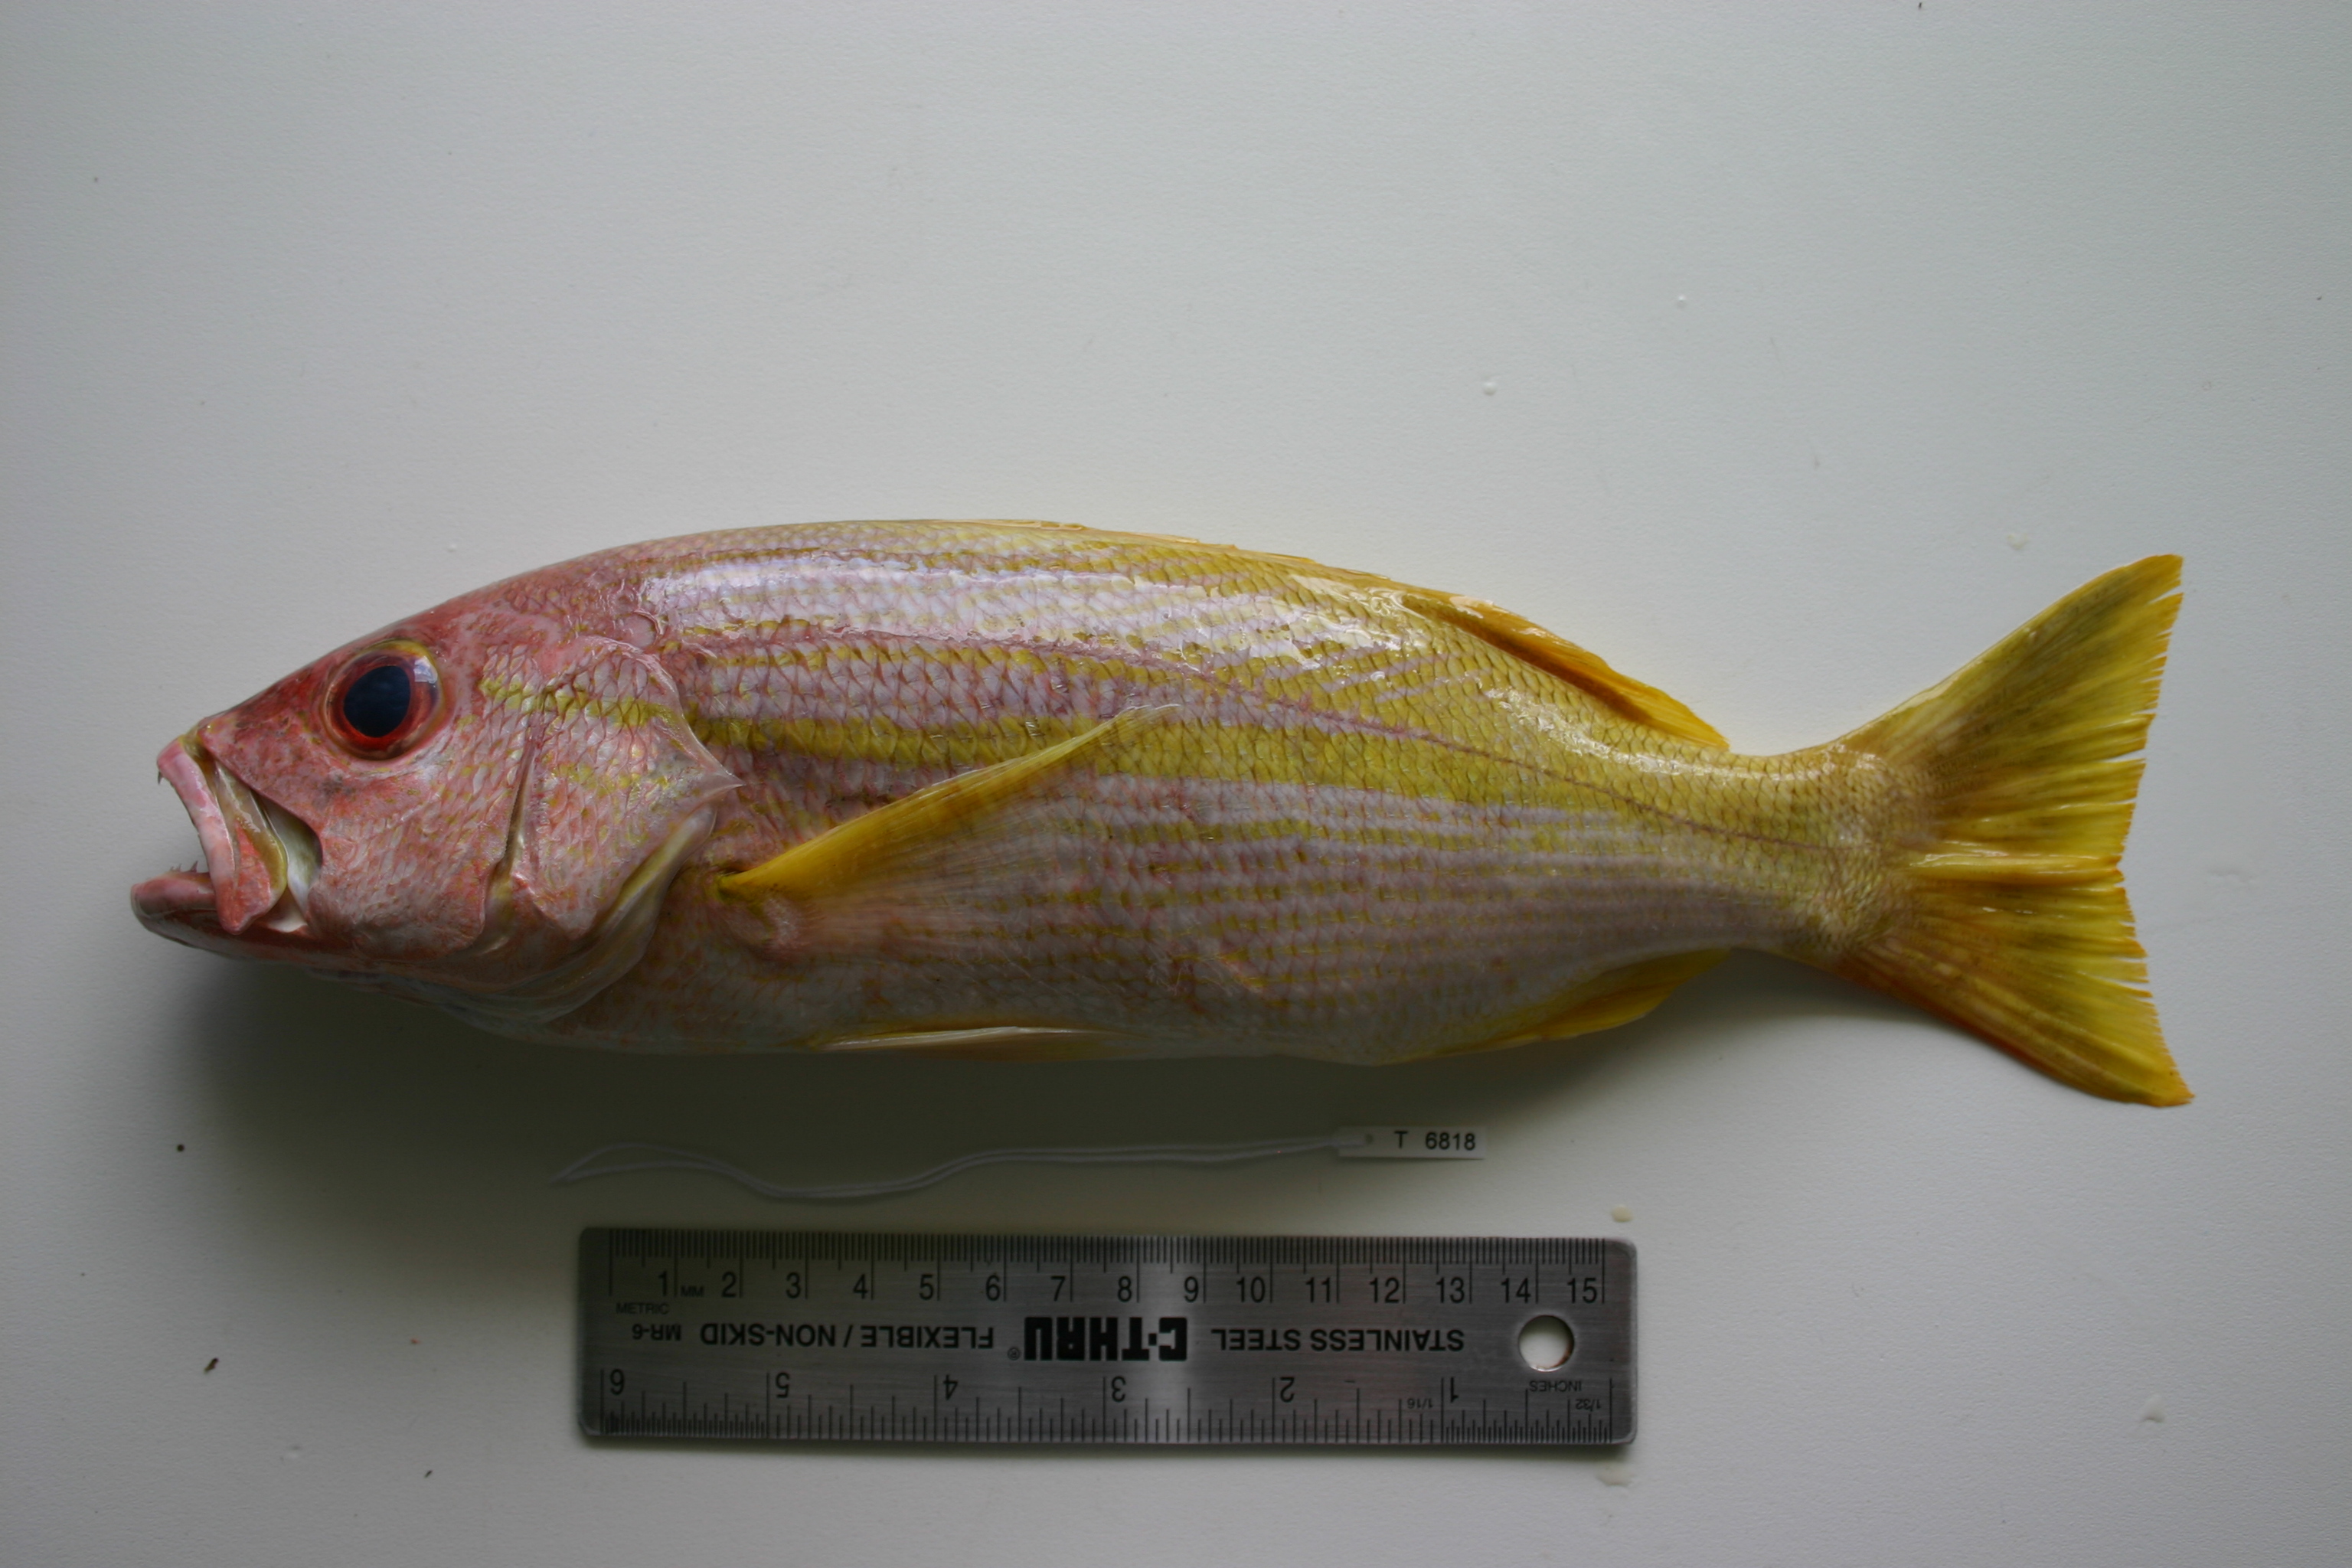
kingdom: Animalia
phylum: Chordata
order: Perciformes
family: Lutjanidae
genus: Lutjanus
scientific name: Lutjanus madras
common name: Indian snapper
